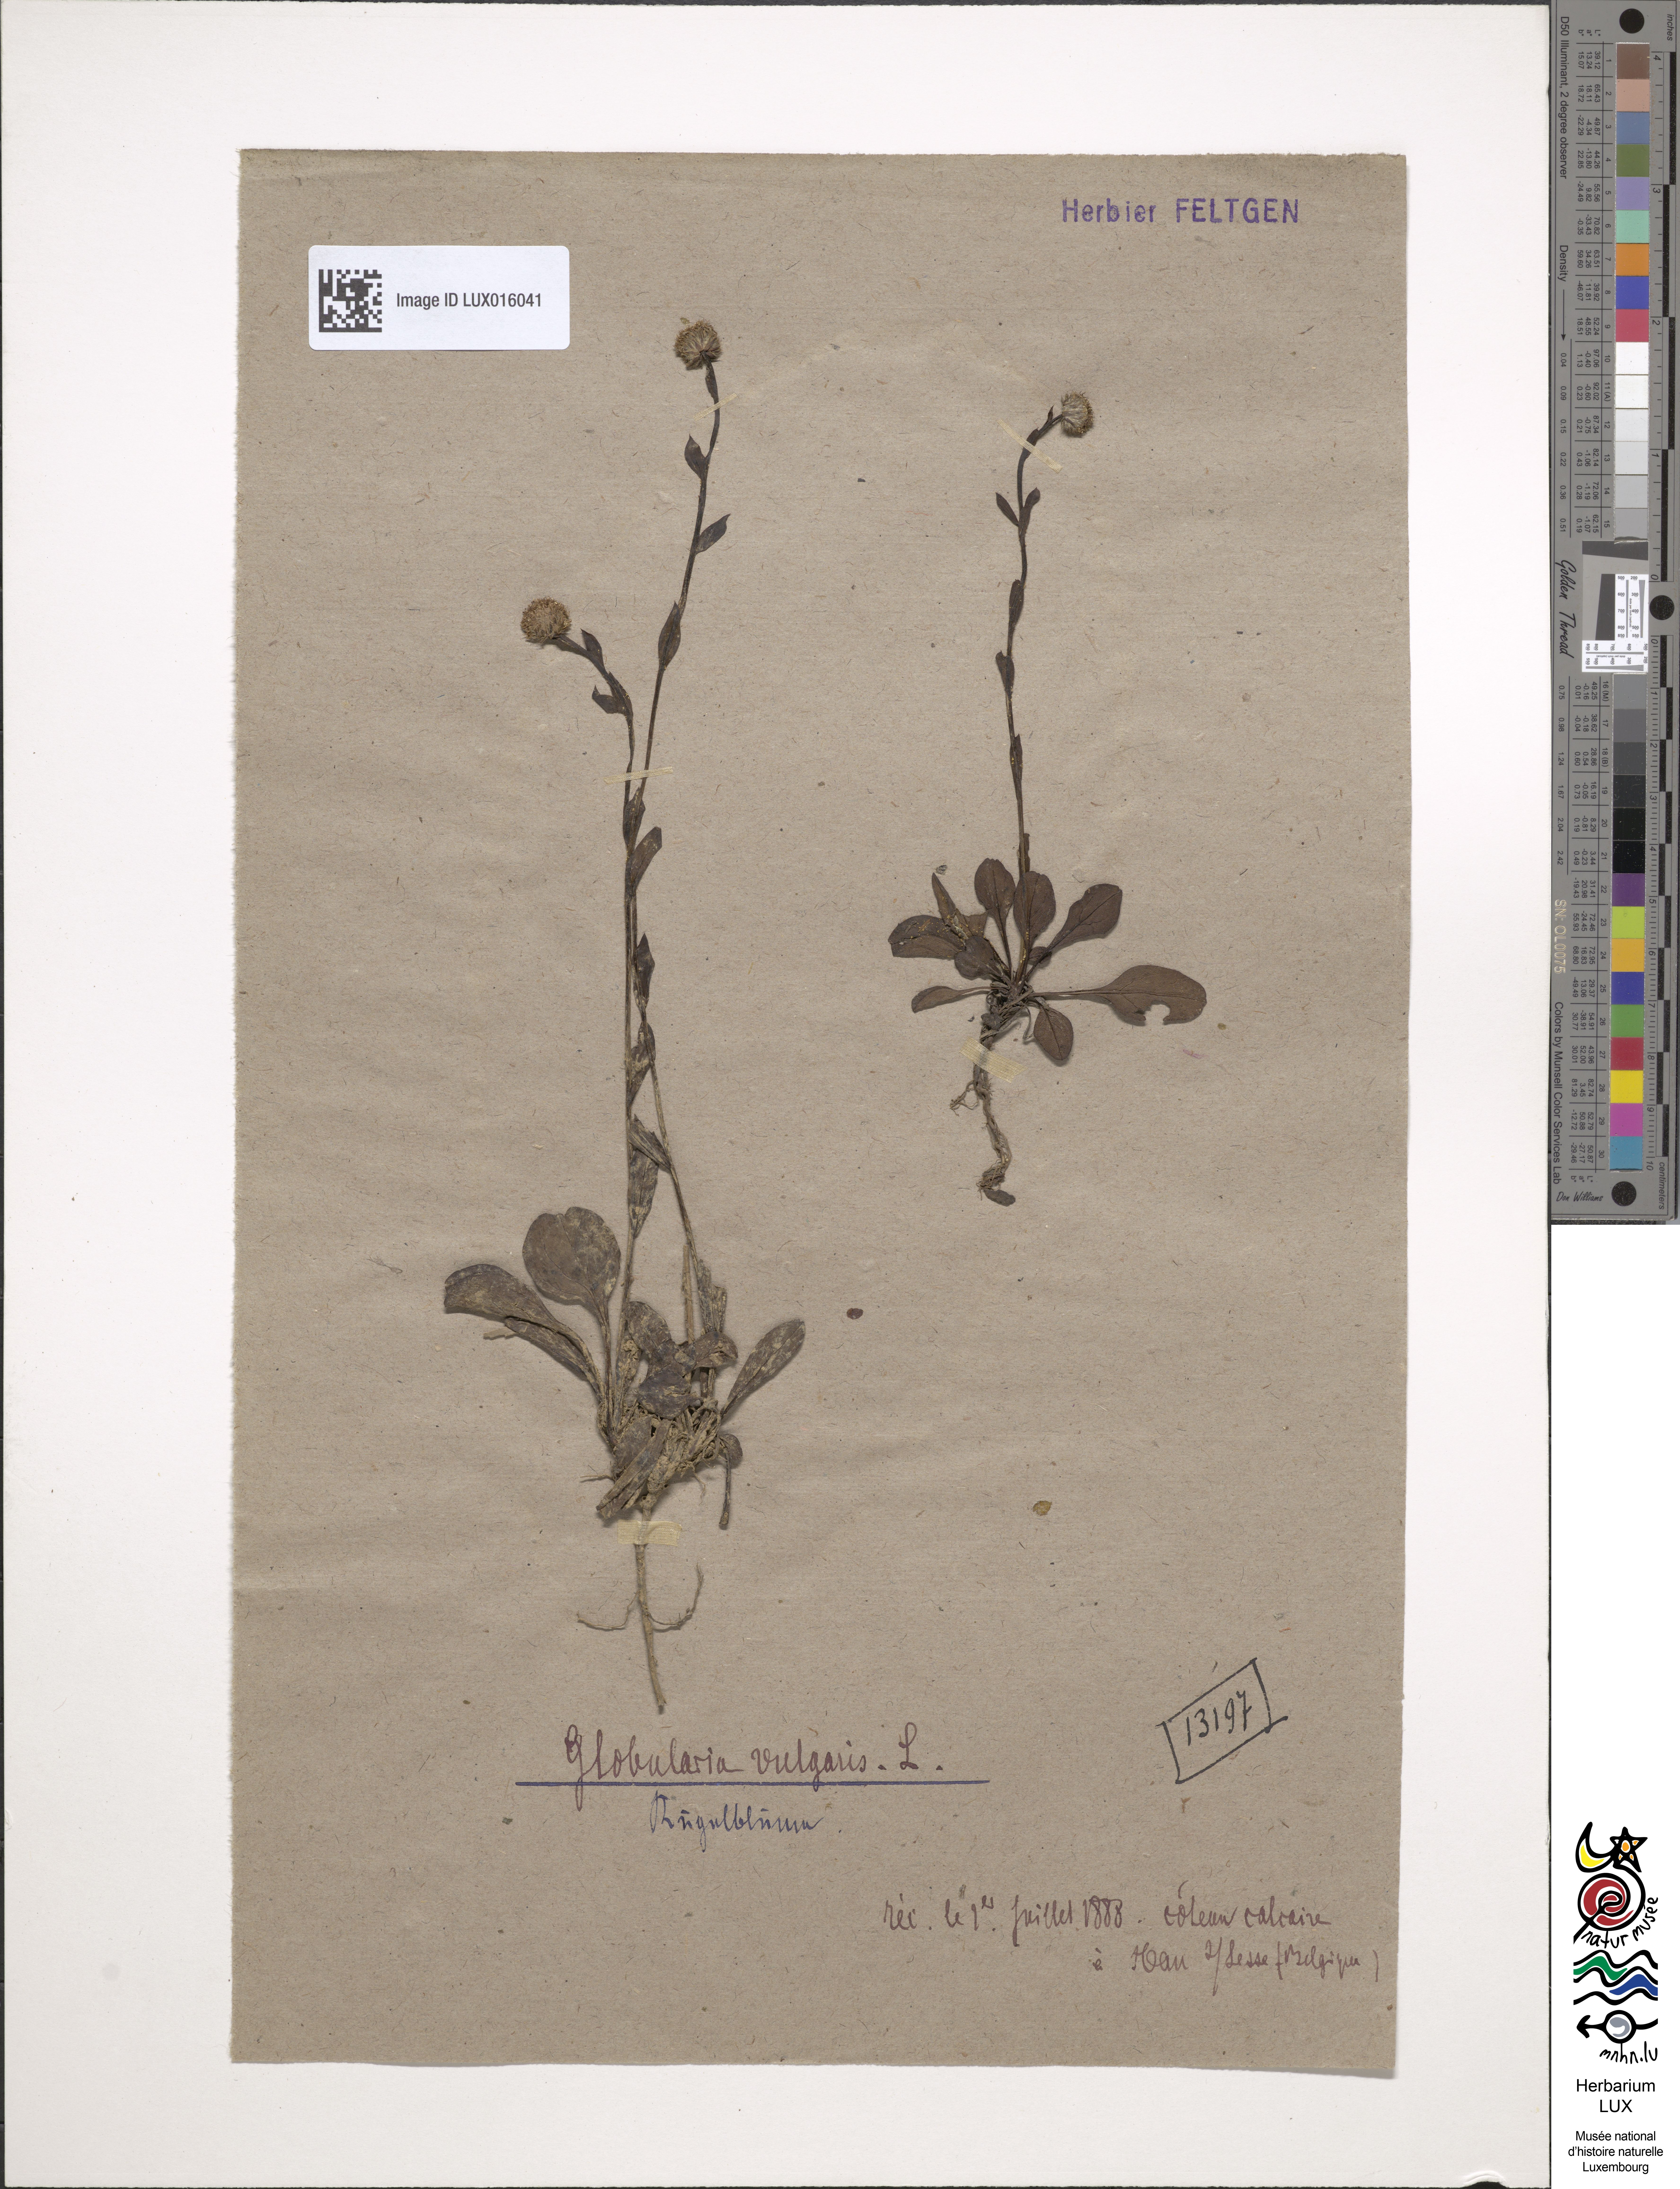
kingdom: Plantae
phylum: Tracheophyta
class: Magnoliopsida
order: Lamiales
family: Plantaginaceae
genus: Globularia
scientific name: Globularia bisnagarica
